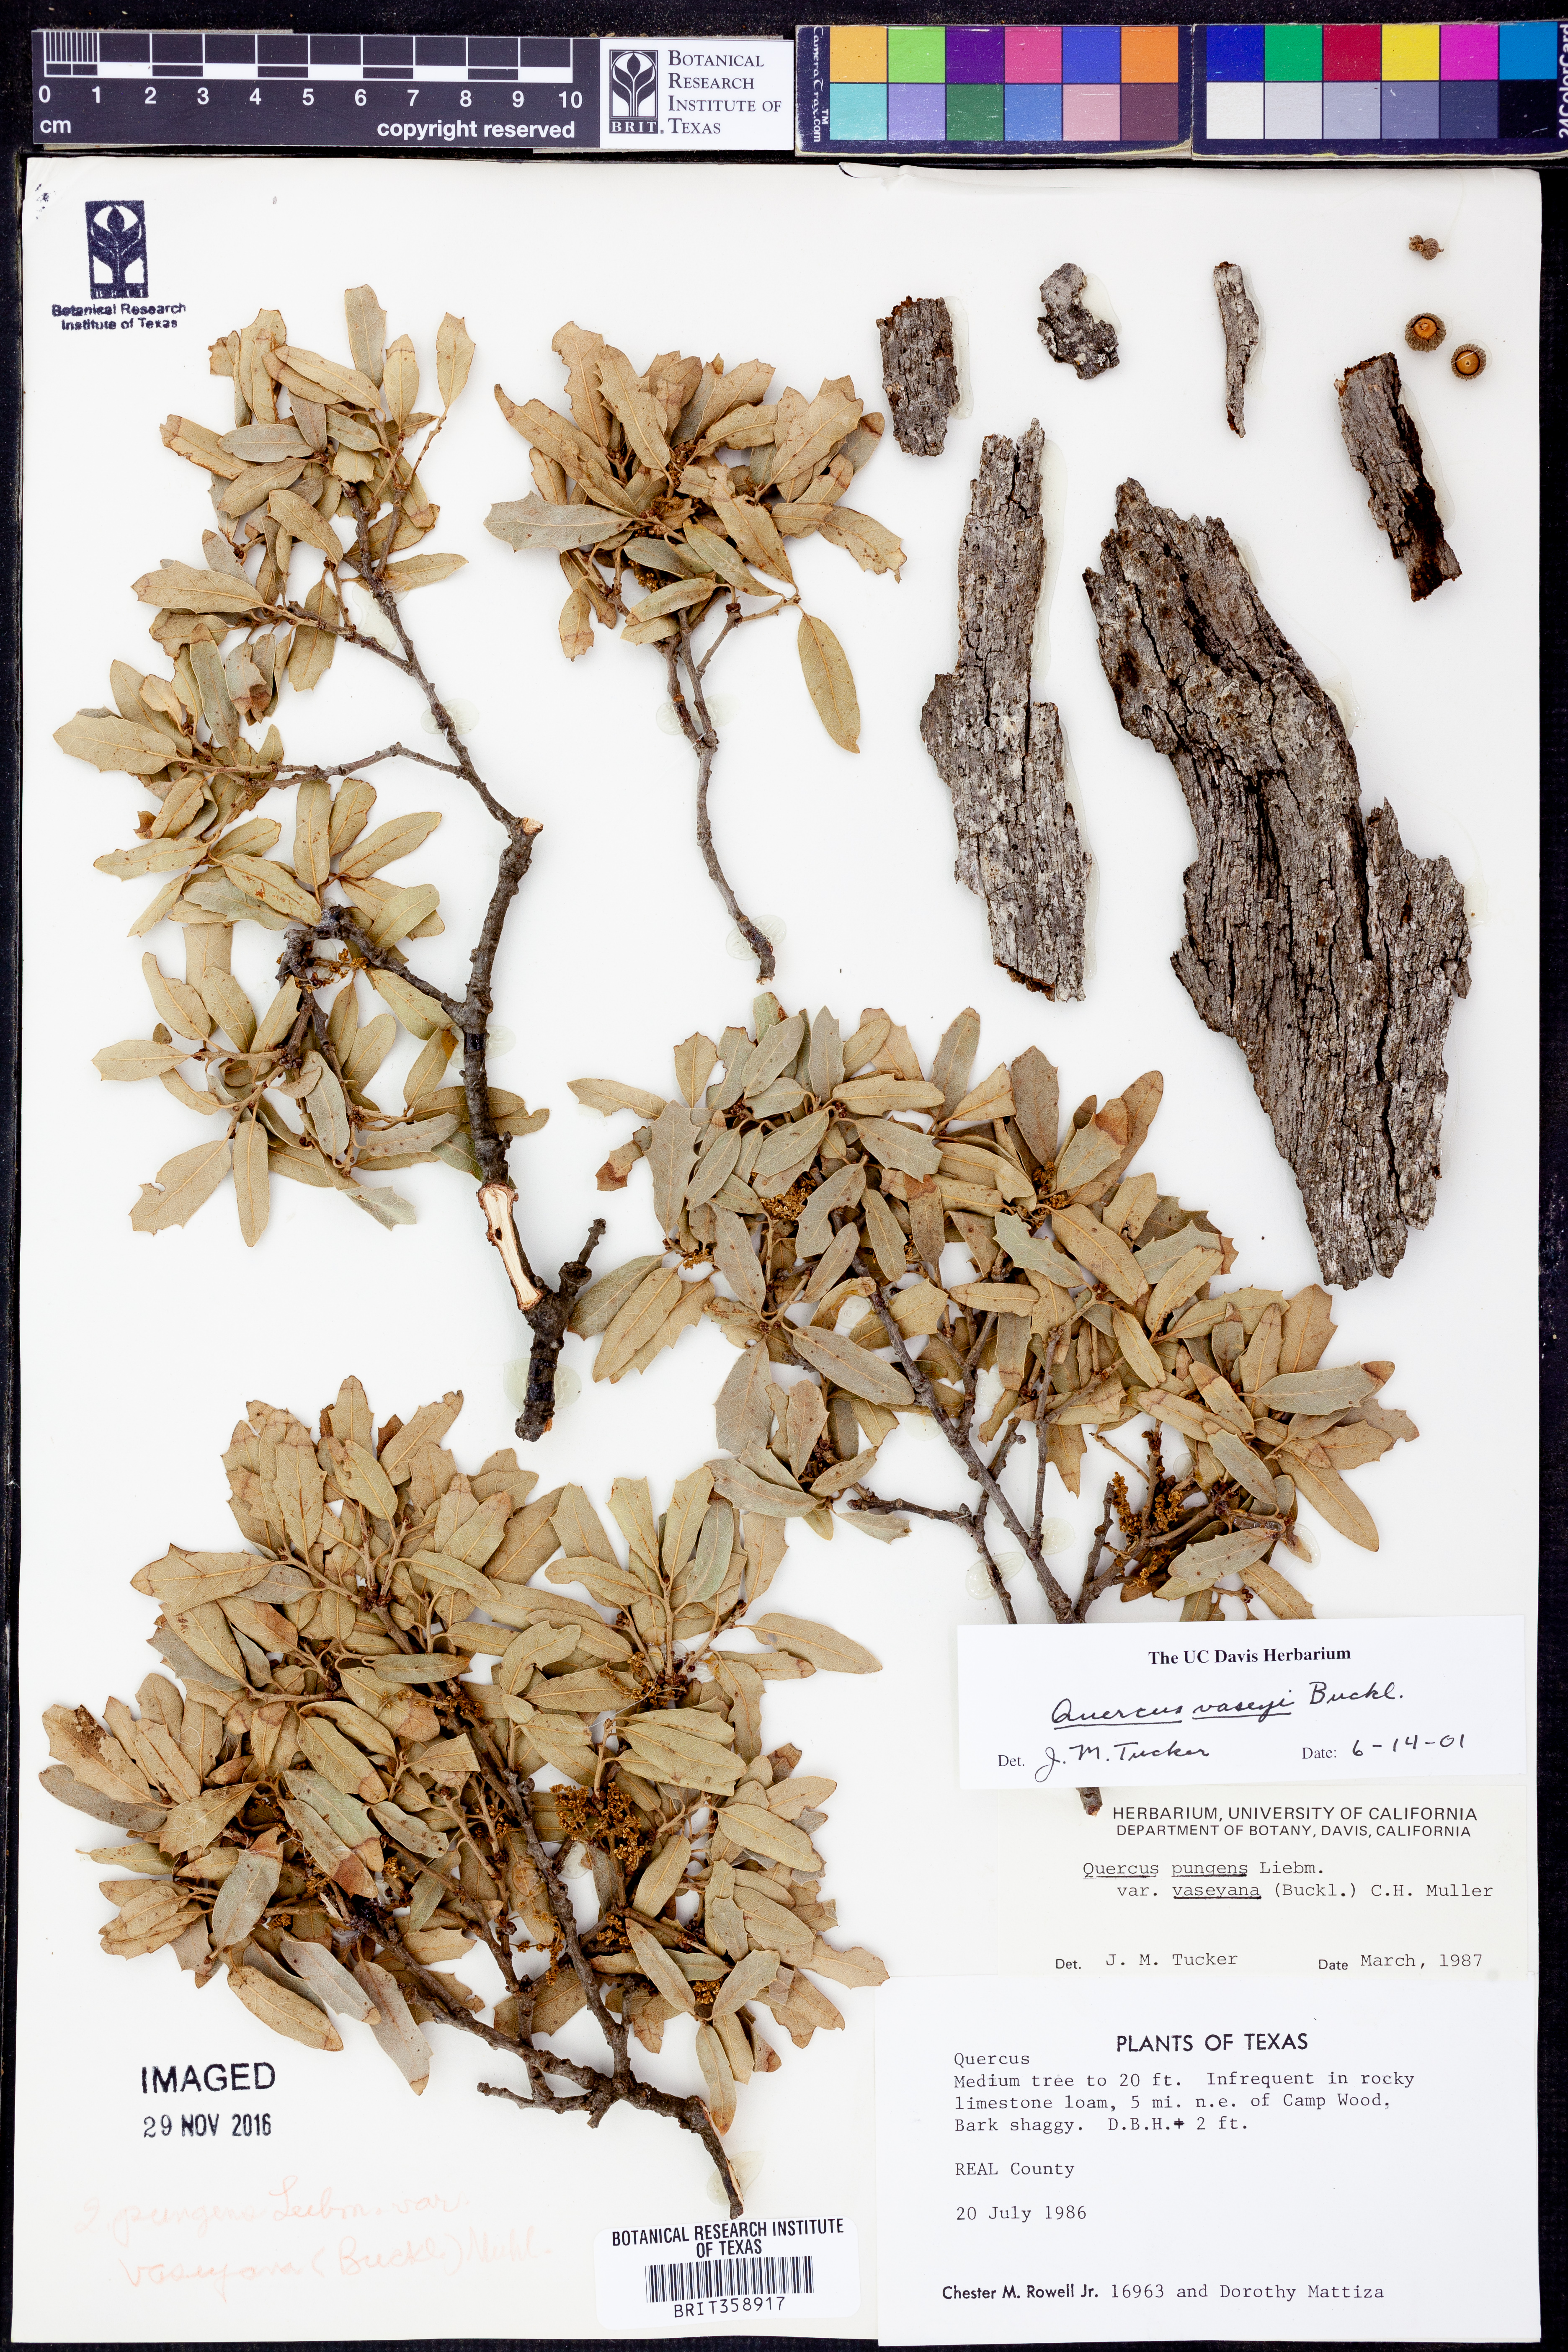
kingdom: Plantae
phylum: Tracheophyta
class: Magnoliopsida
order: Fagales
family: Fagaceae
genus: Quercus
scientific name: Quercus vaseyana
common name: Sandpaper oak
